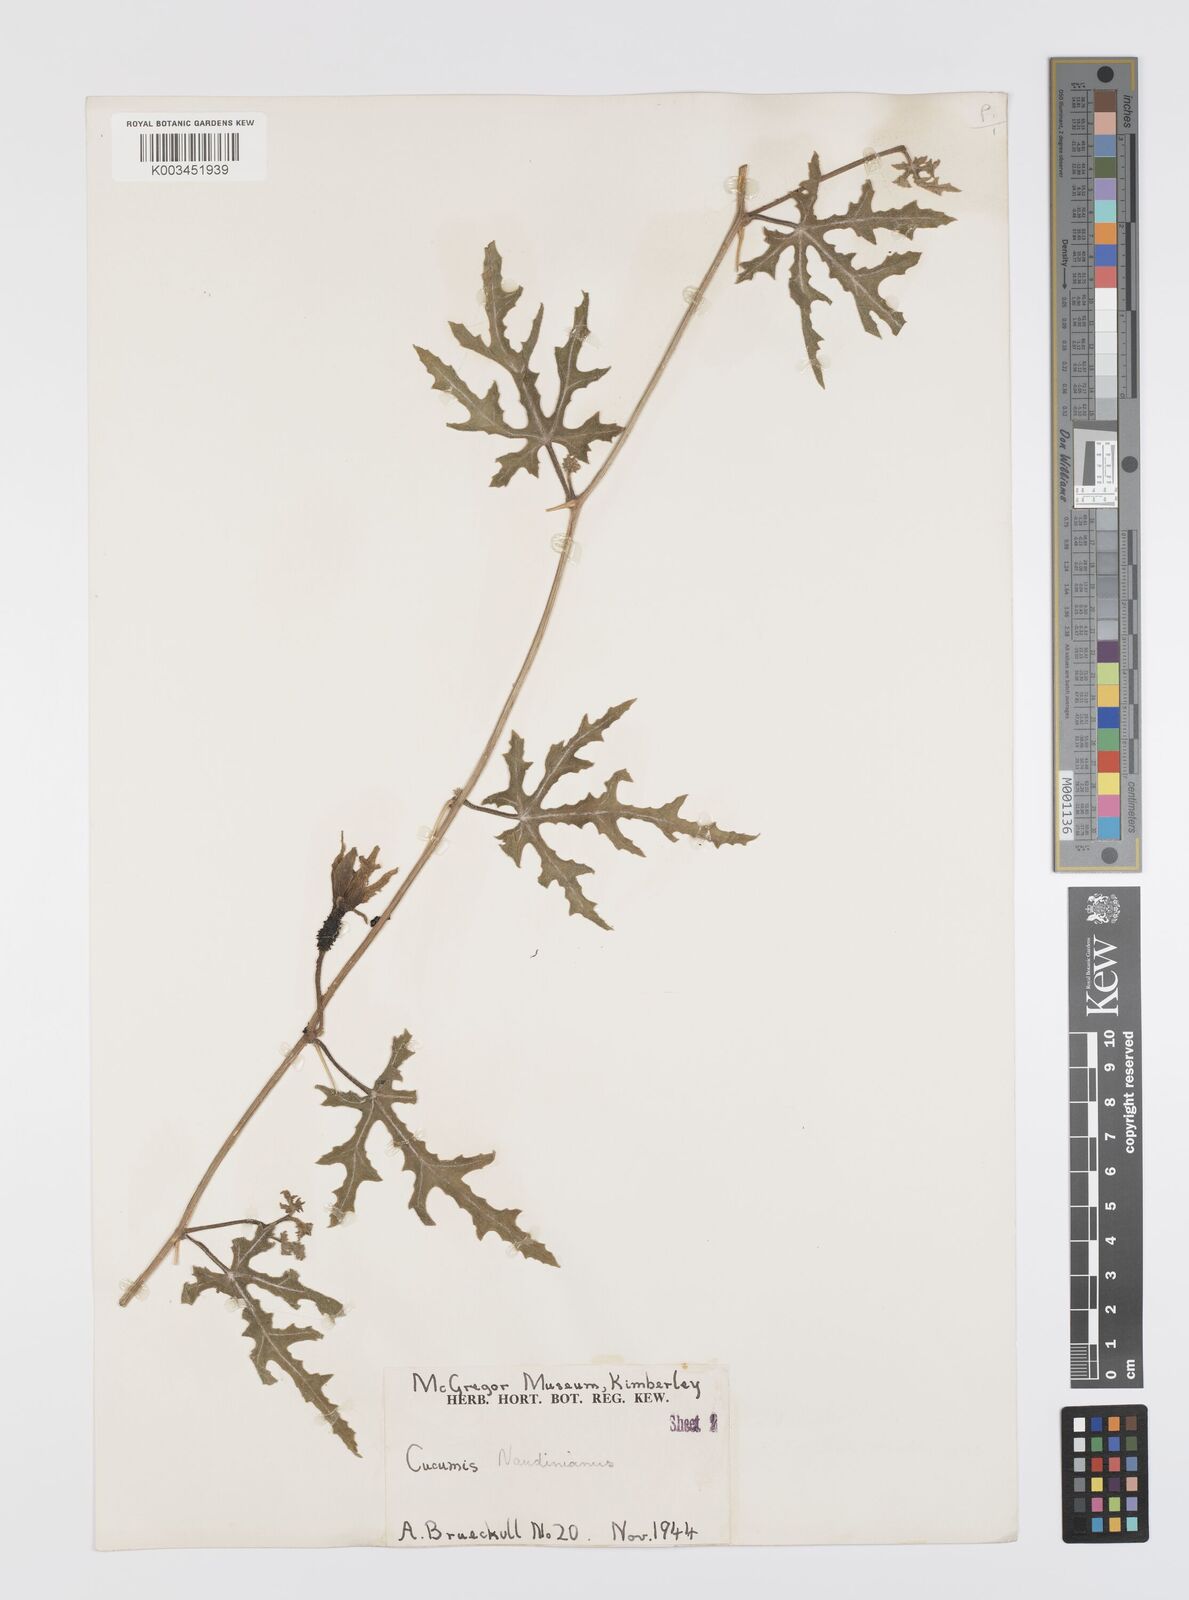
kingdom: Plantae
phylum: Tracheophyta
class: Magnoliopsida
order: Cucurbitales
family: Cucurbitaceae
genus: Citrullus
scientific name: Citrullus naudinianus
